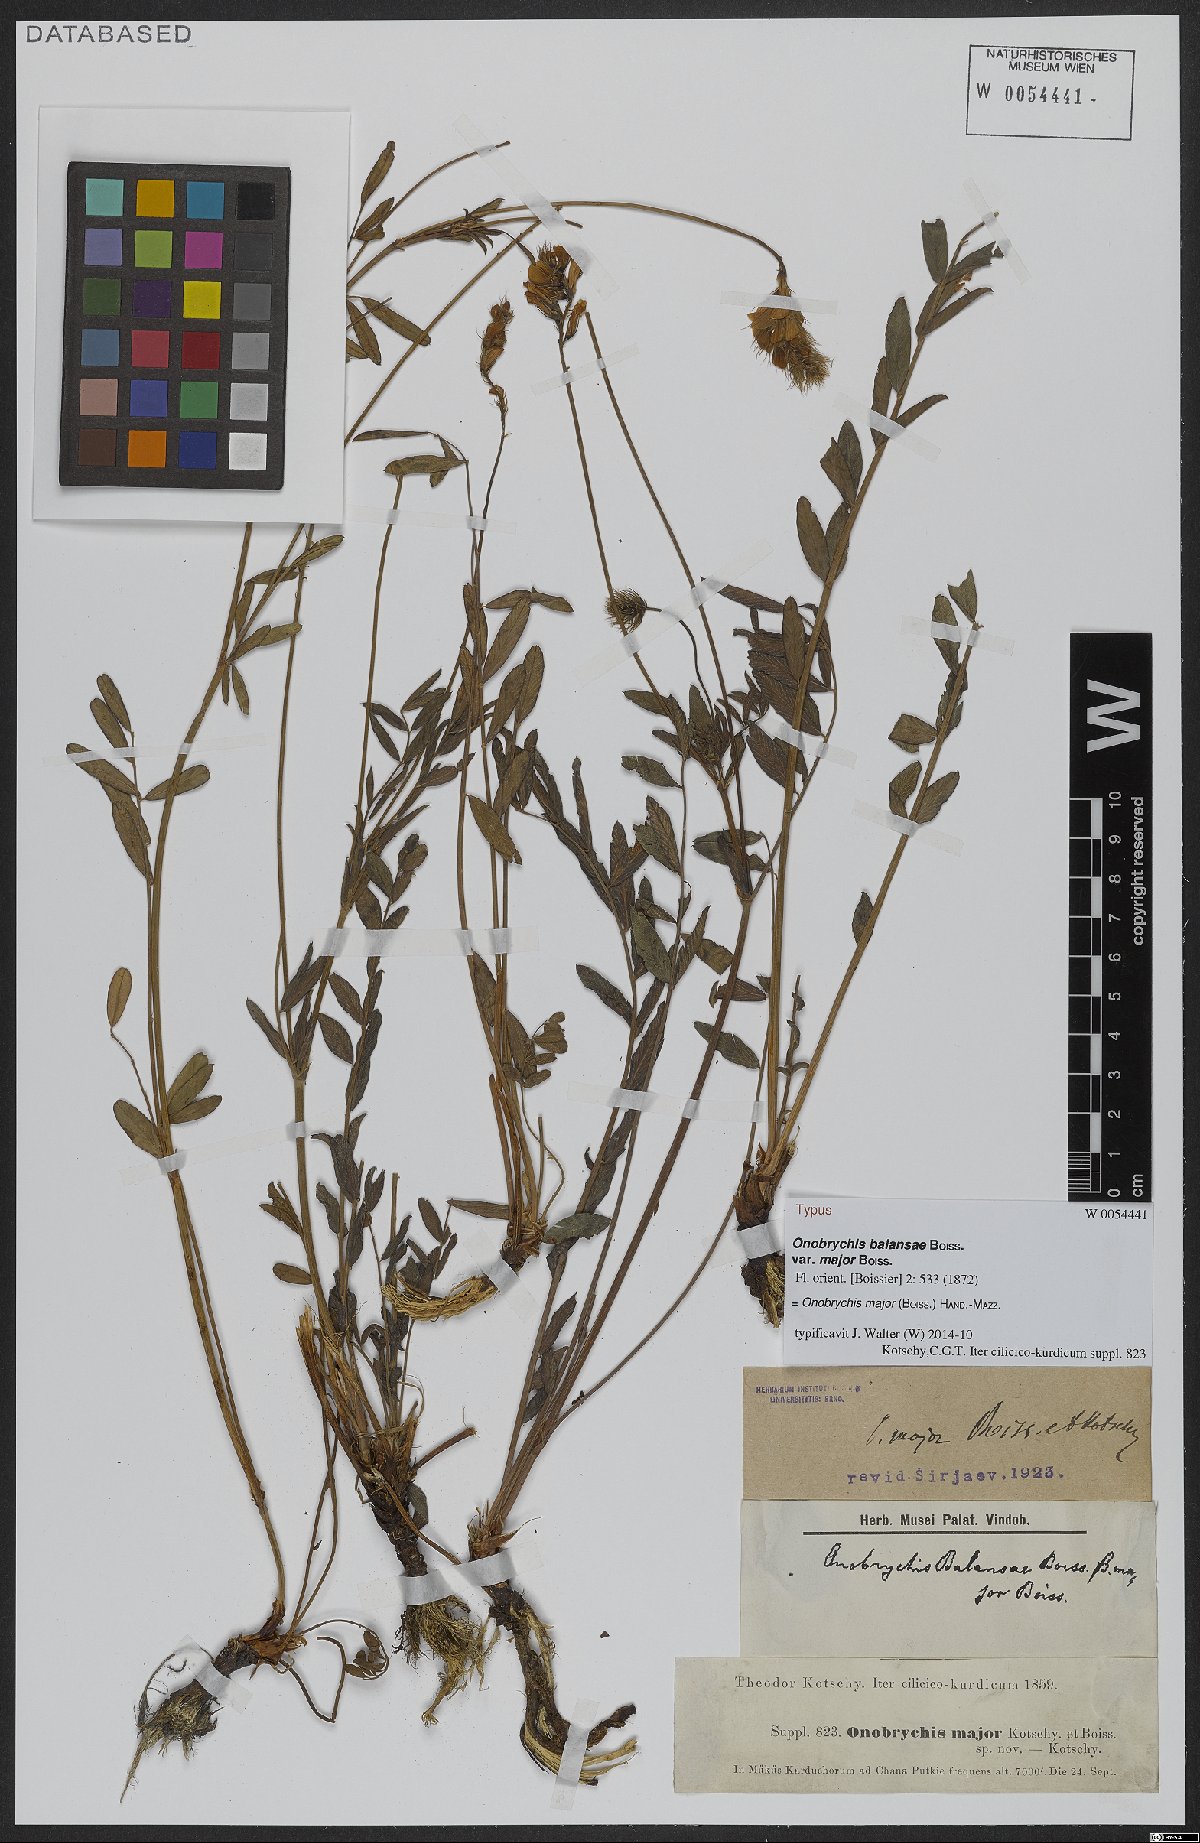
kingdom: Plantae
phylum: Tracheophyta
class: Magnoliopsida
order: Fabales
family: Fabaceae
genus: Onobrychis
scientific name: Onobrychis major
